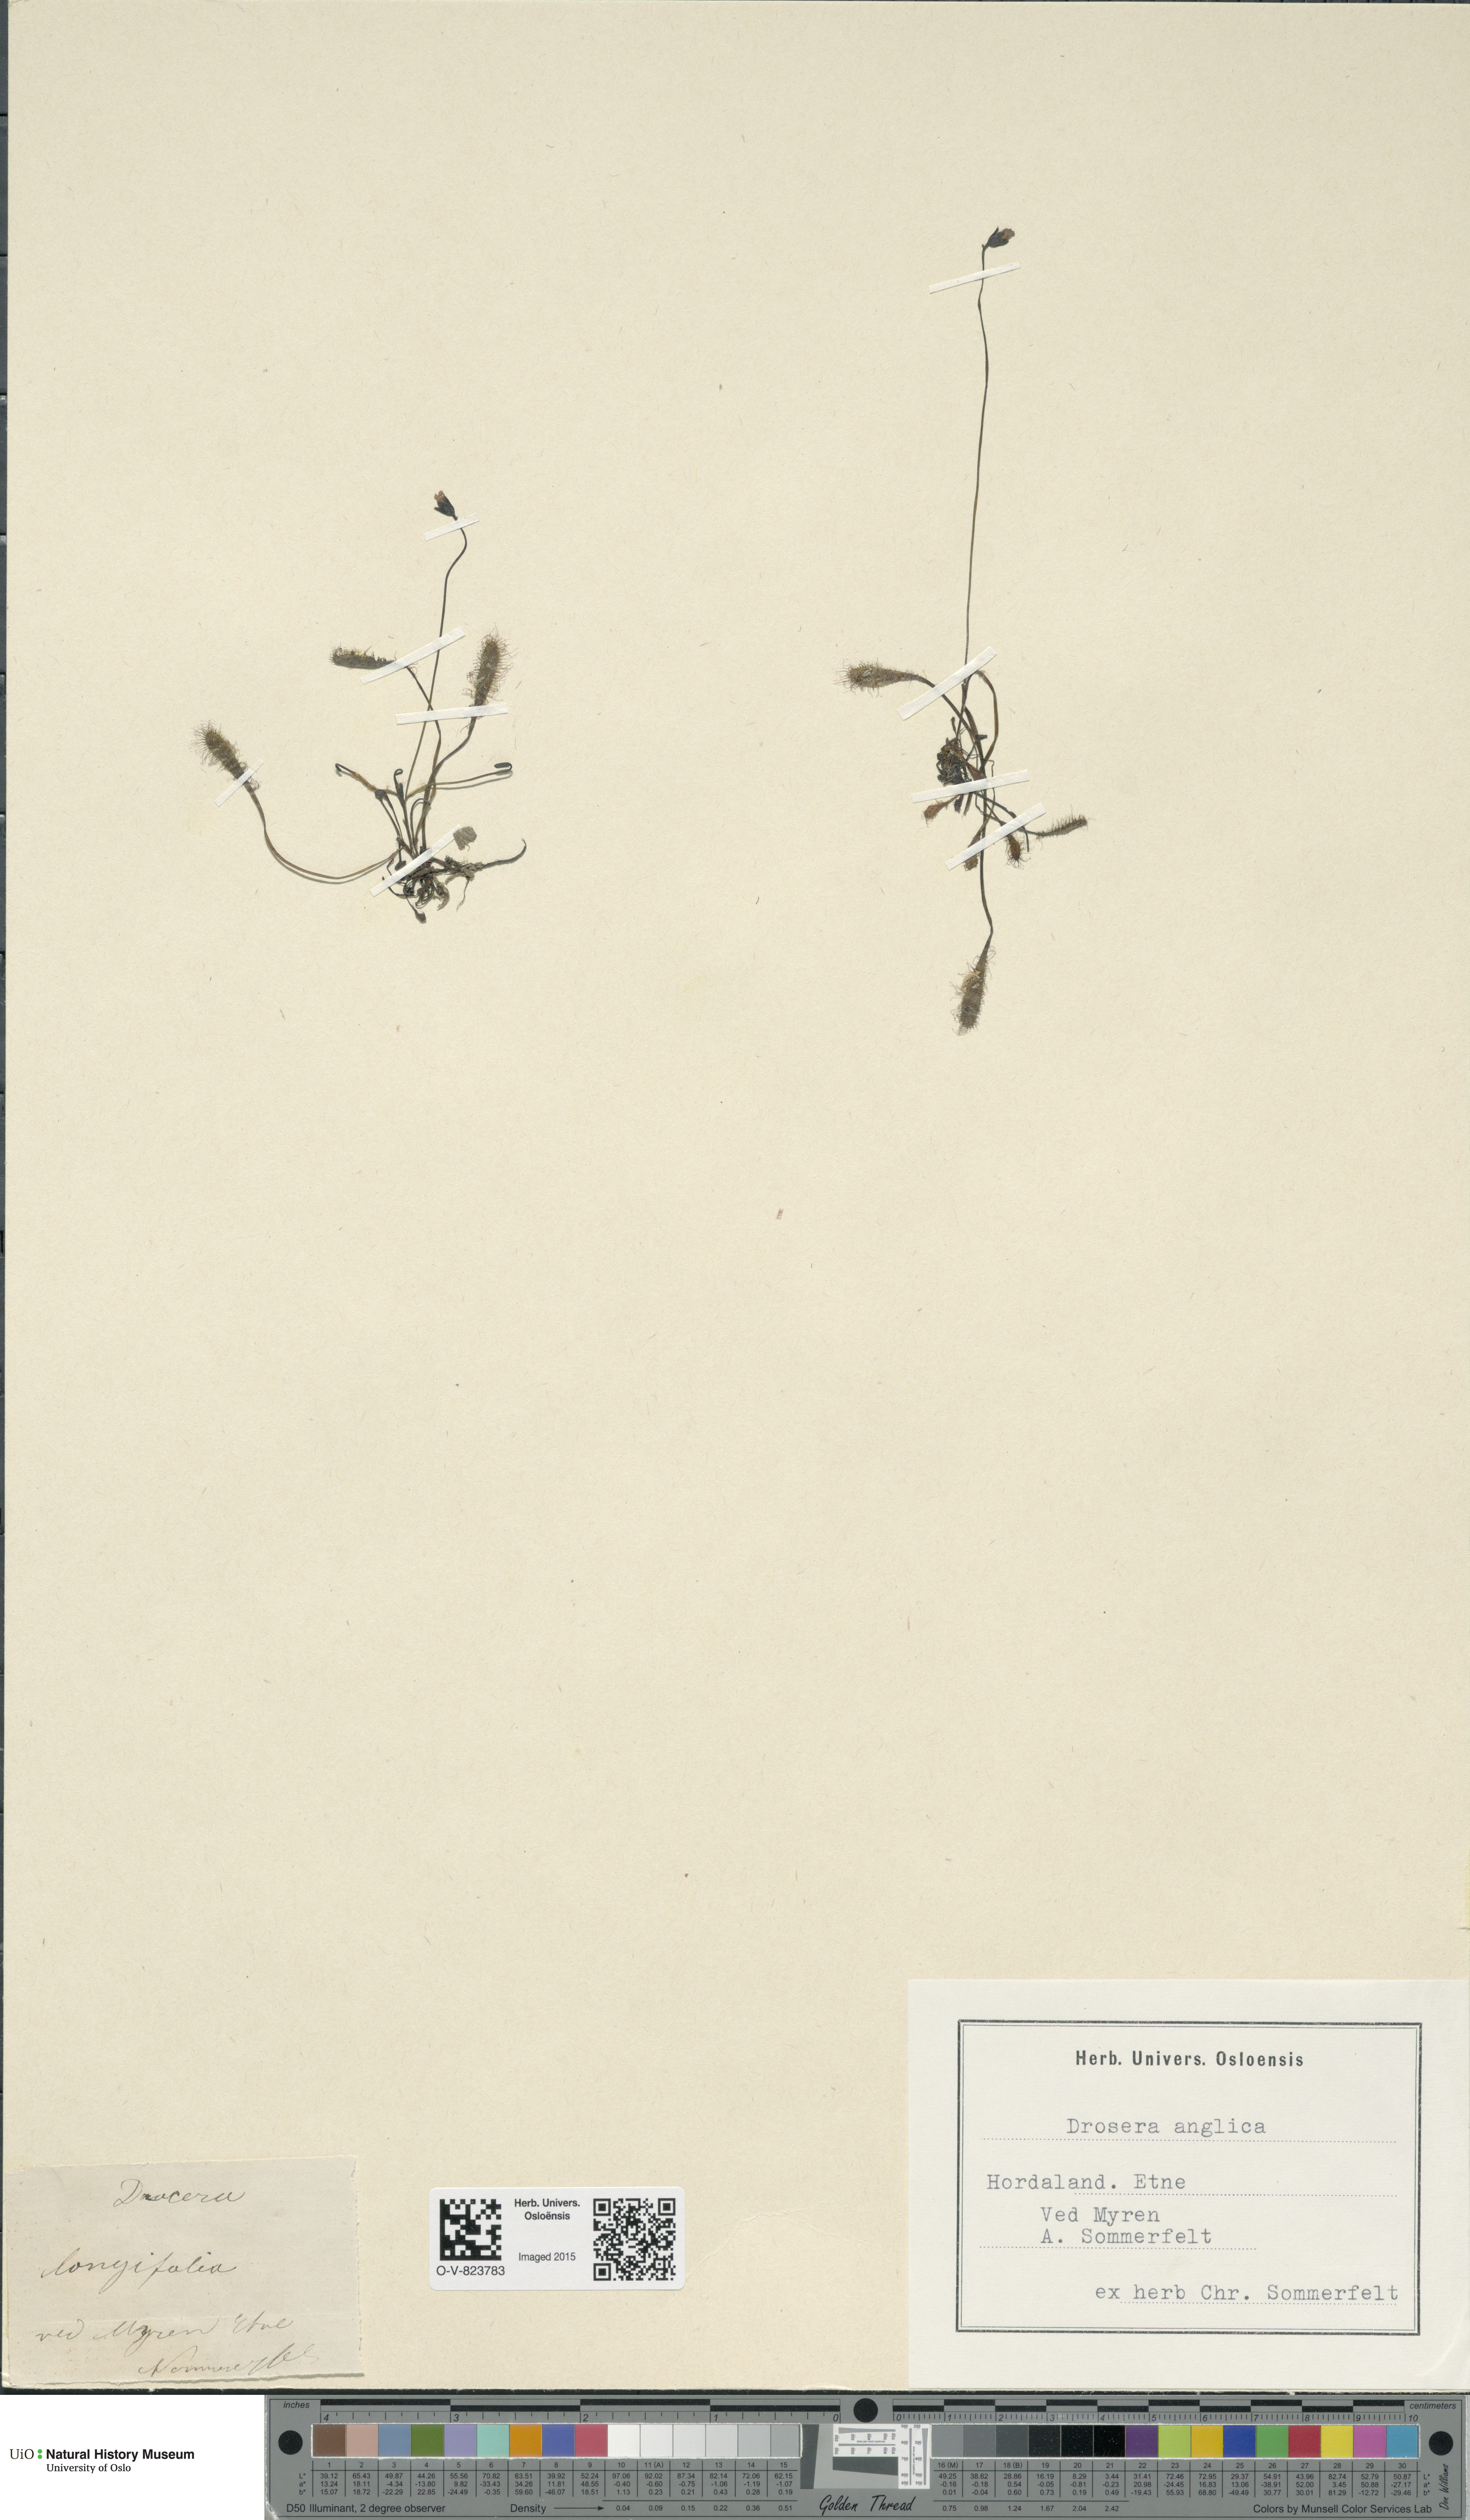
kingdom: Plantae
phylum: Tracheophyta
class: Magnoliopsida
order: Caryophyllales
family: Droseraceae
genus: Drosera
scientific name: Drosera anglica
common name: Great sundew
